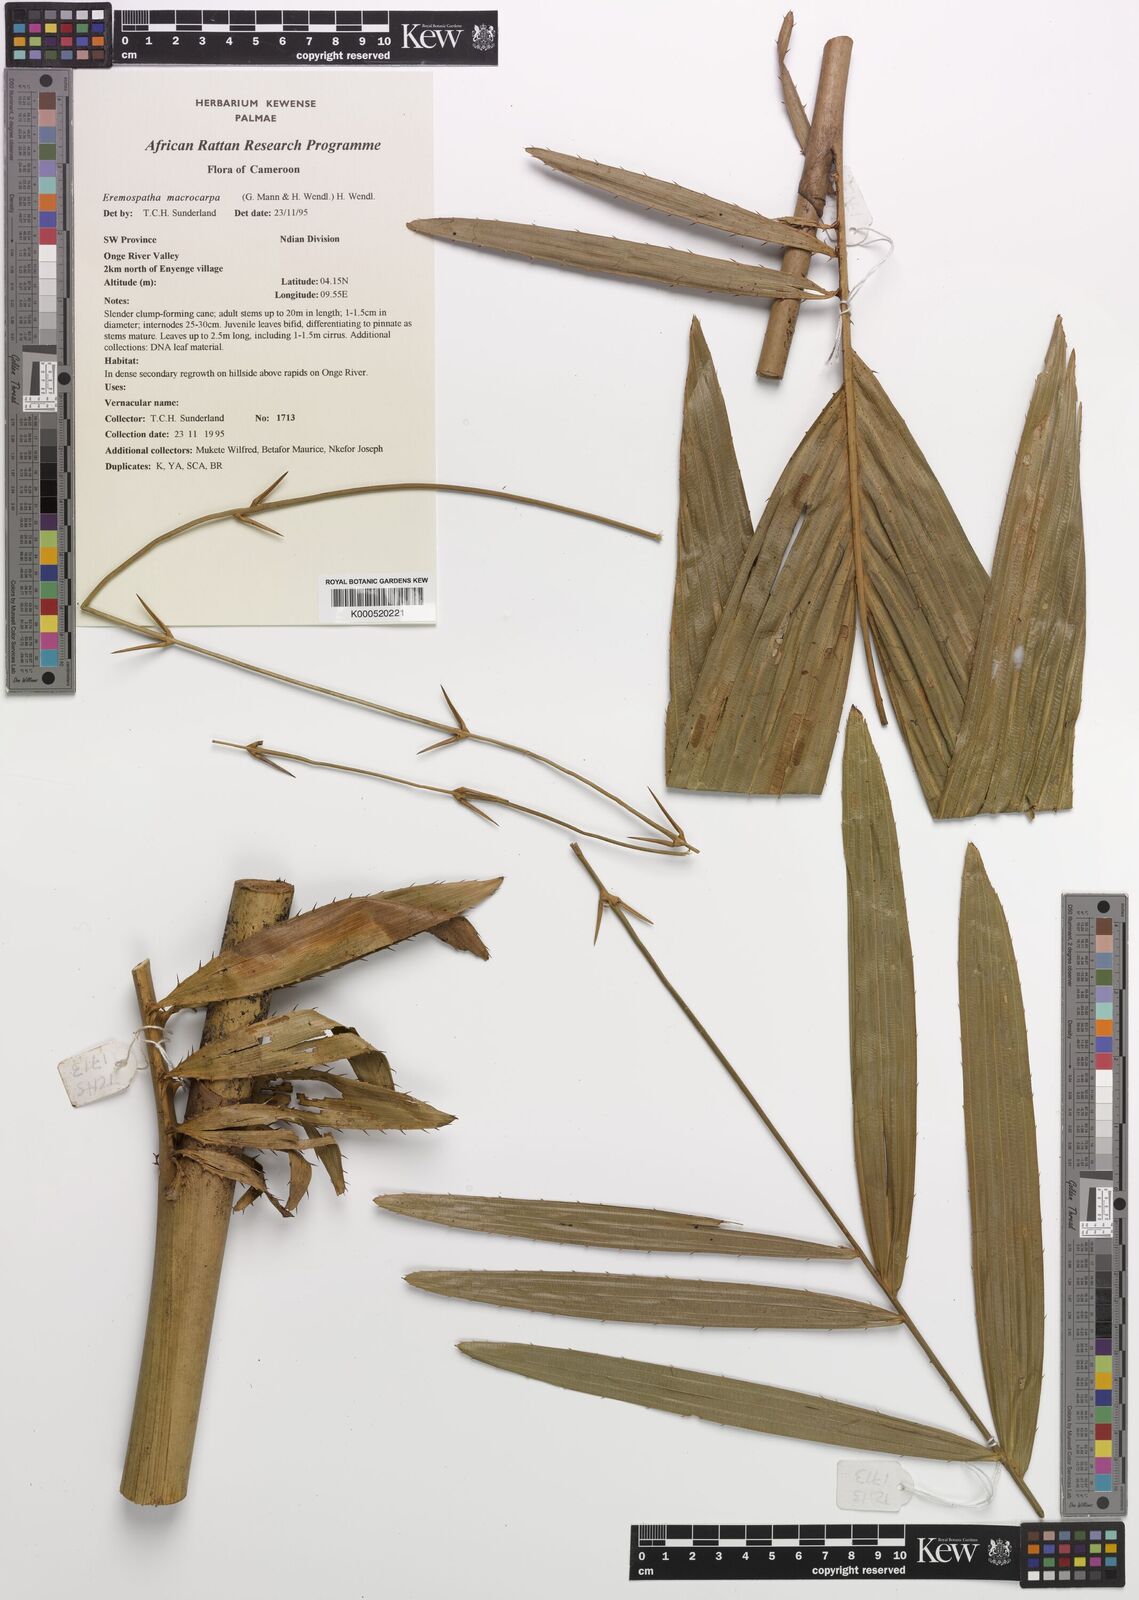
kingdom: Plantae
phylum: Tracheophyta
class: Liliopsida
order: Arecales
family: Arecaceae
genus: Eremospatha
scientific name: Eremospatha
